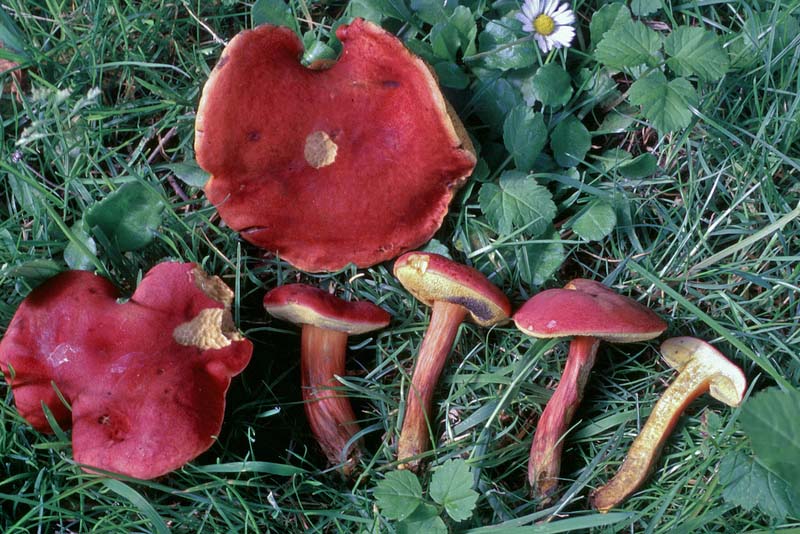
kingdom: Fungi
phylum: Basidiomycota
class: Agaricomycetes
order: Boletales
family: Boletaceae
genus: Hortiboletus
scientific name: Hortiboletus rubellus
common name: blodrød rørhat
